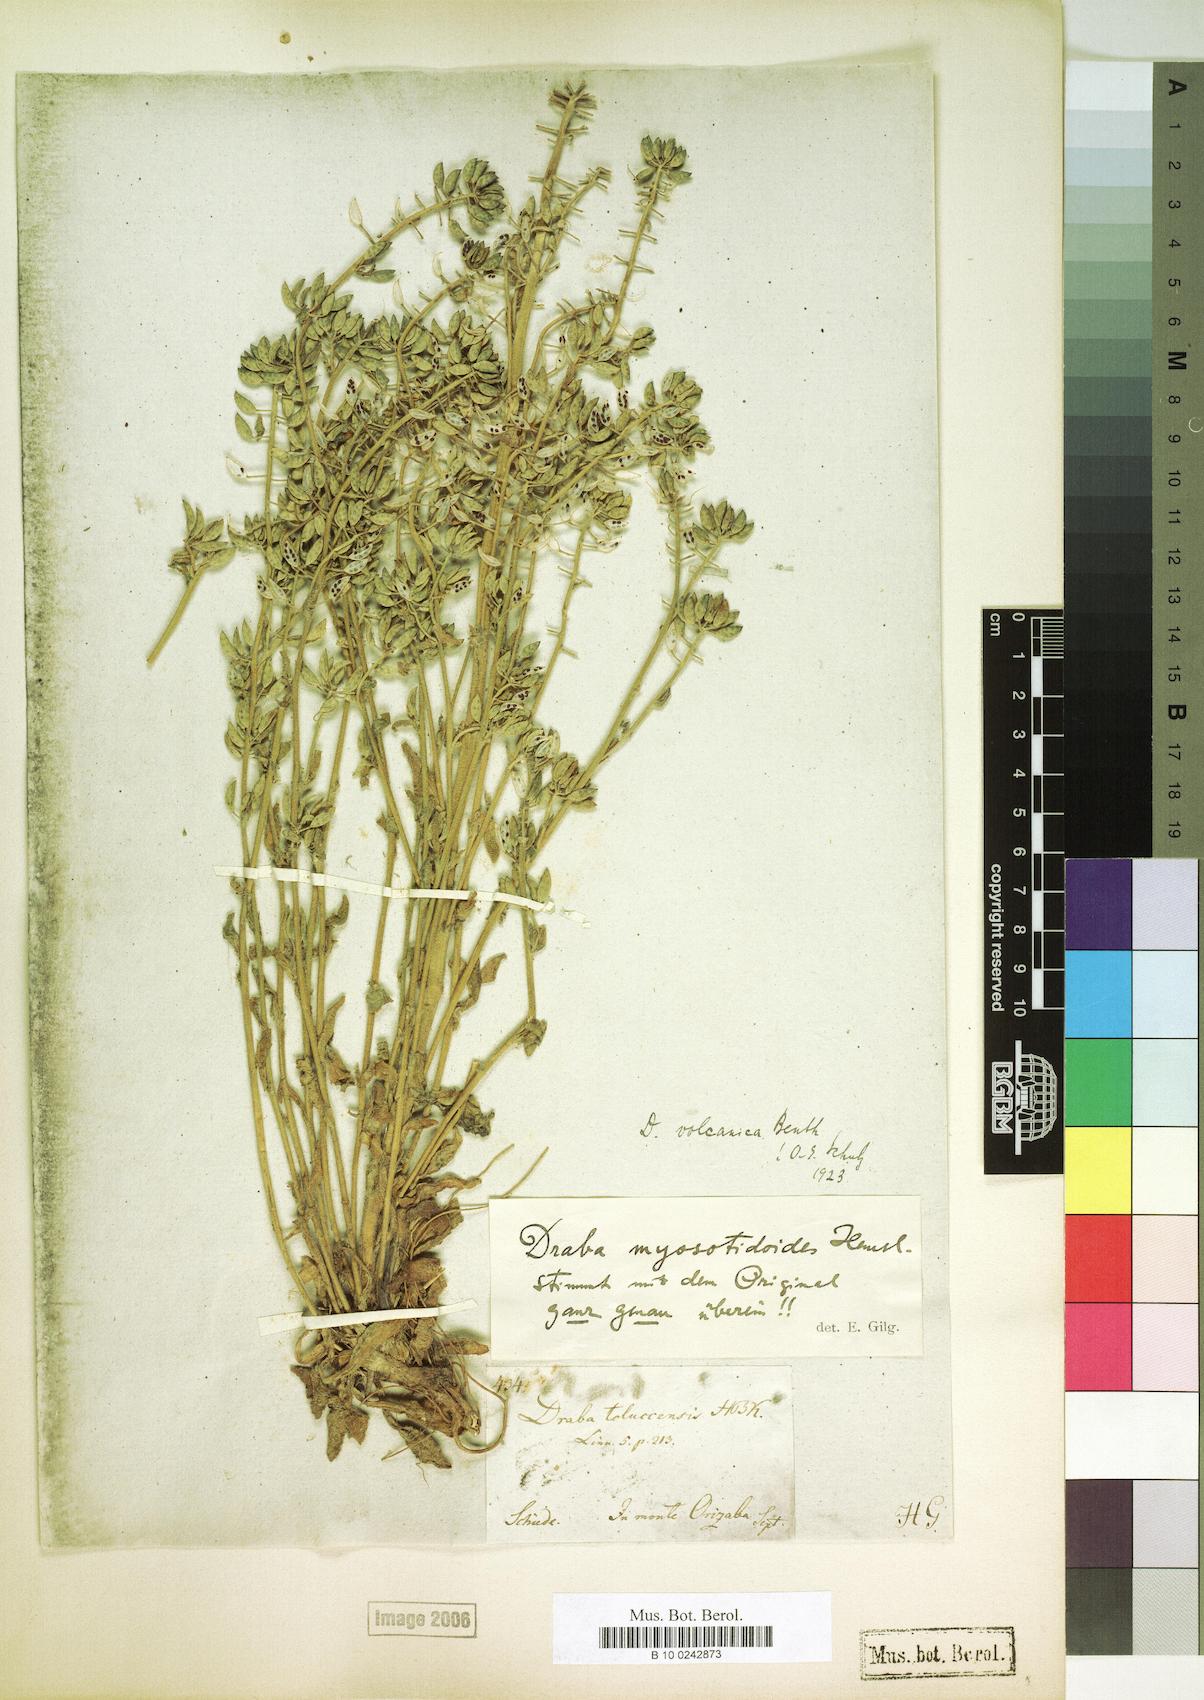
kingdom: Plantae
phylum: Tracheophyta
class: Magnoliopsida
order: Brassicales
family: Brassicaceae
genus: Draba
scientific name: Draba jorullensis
